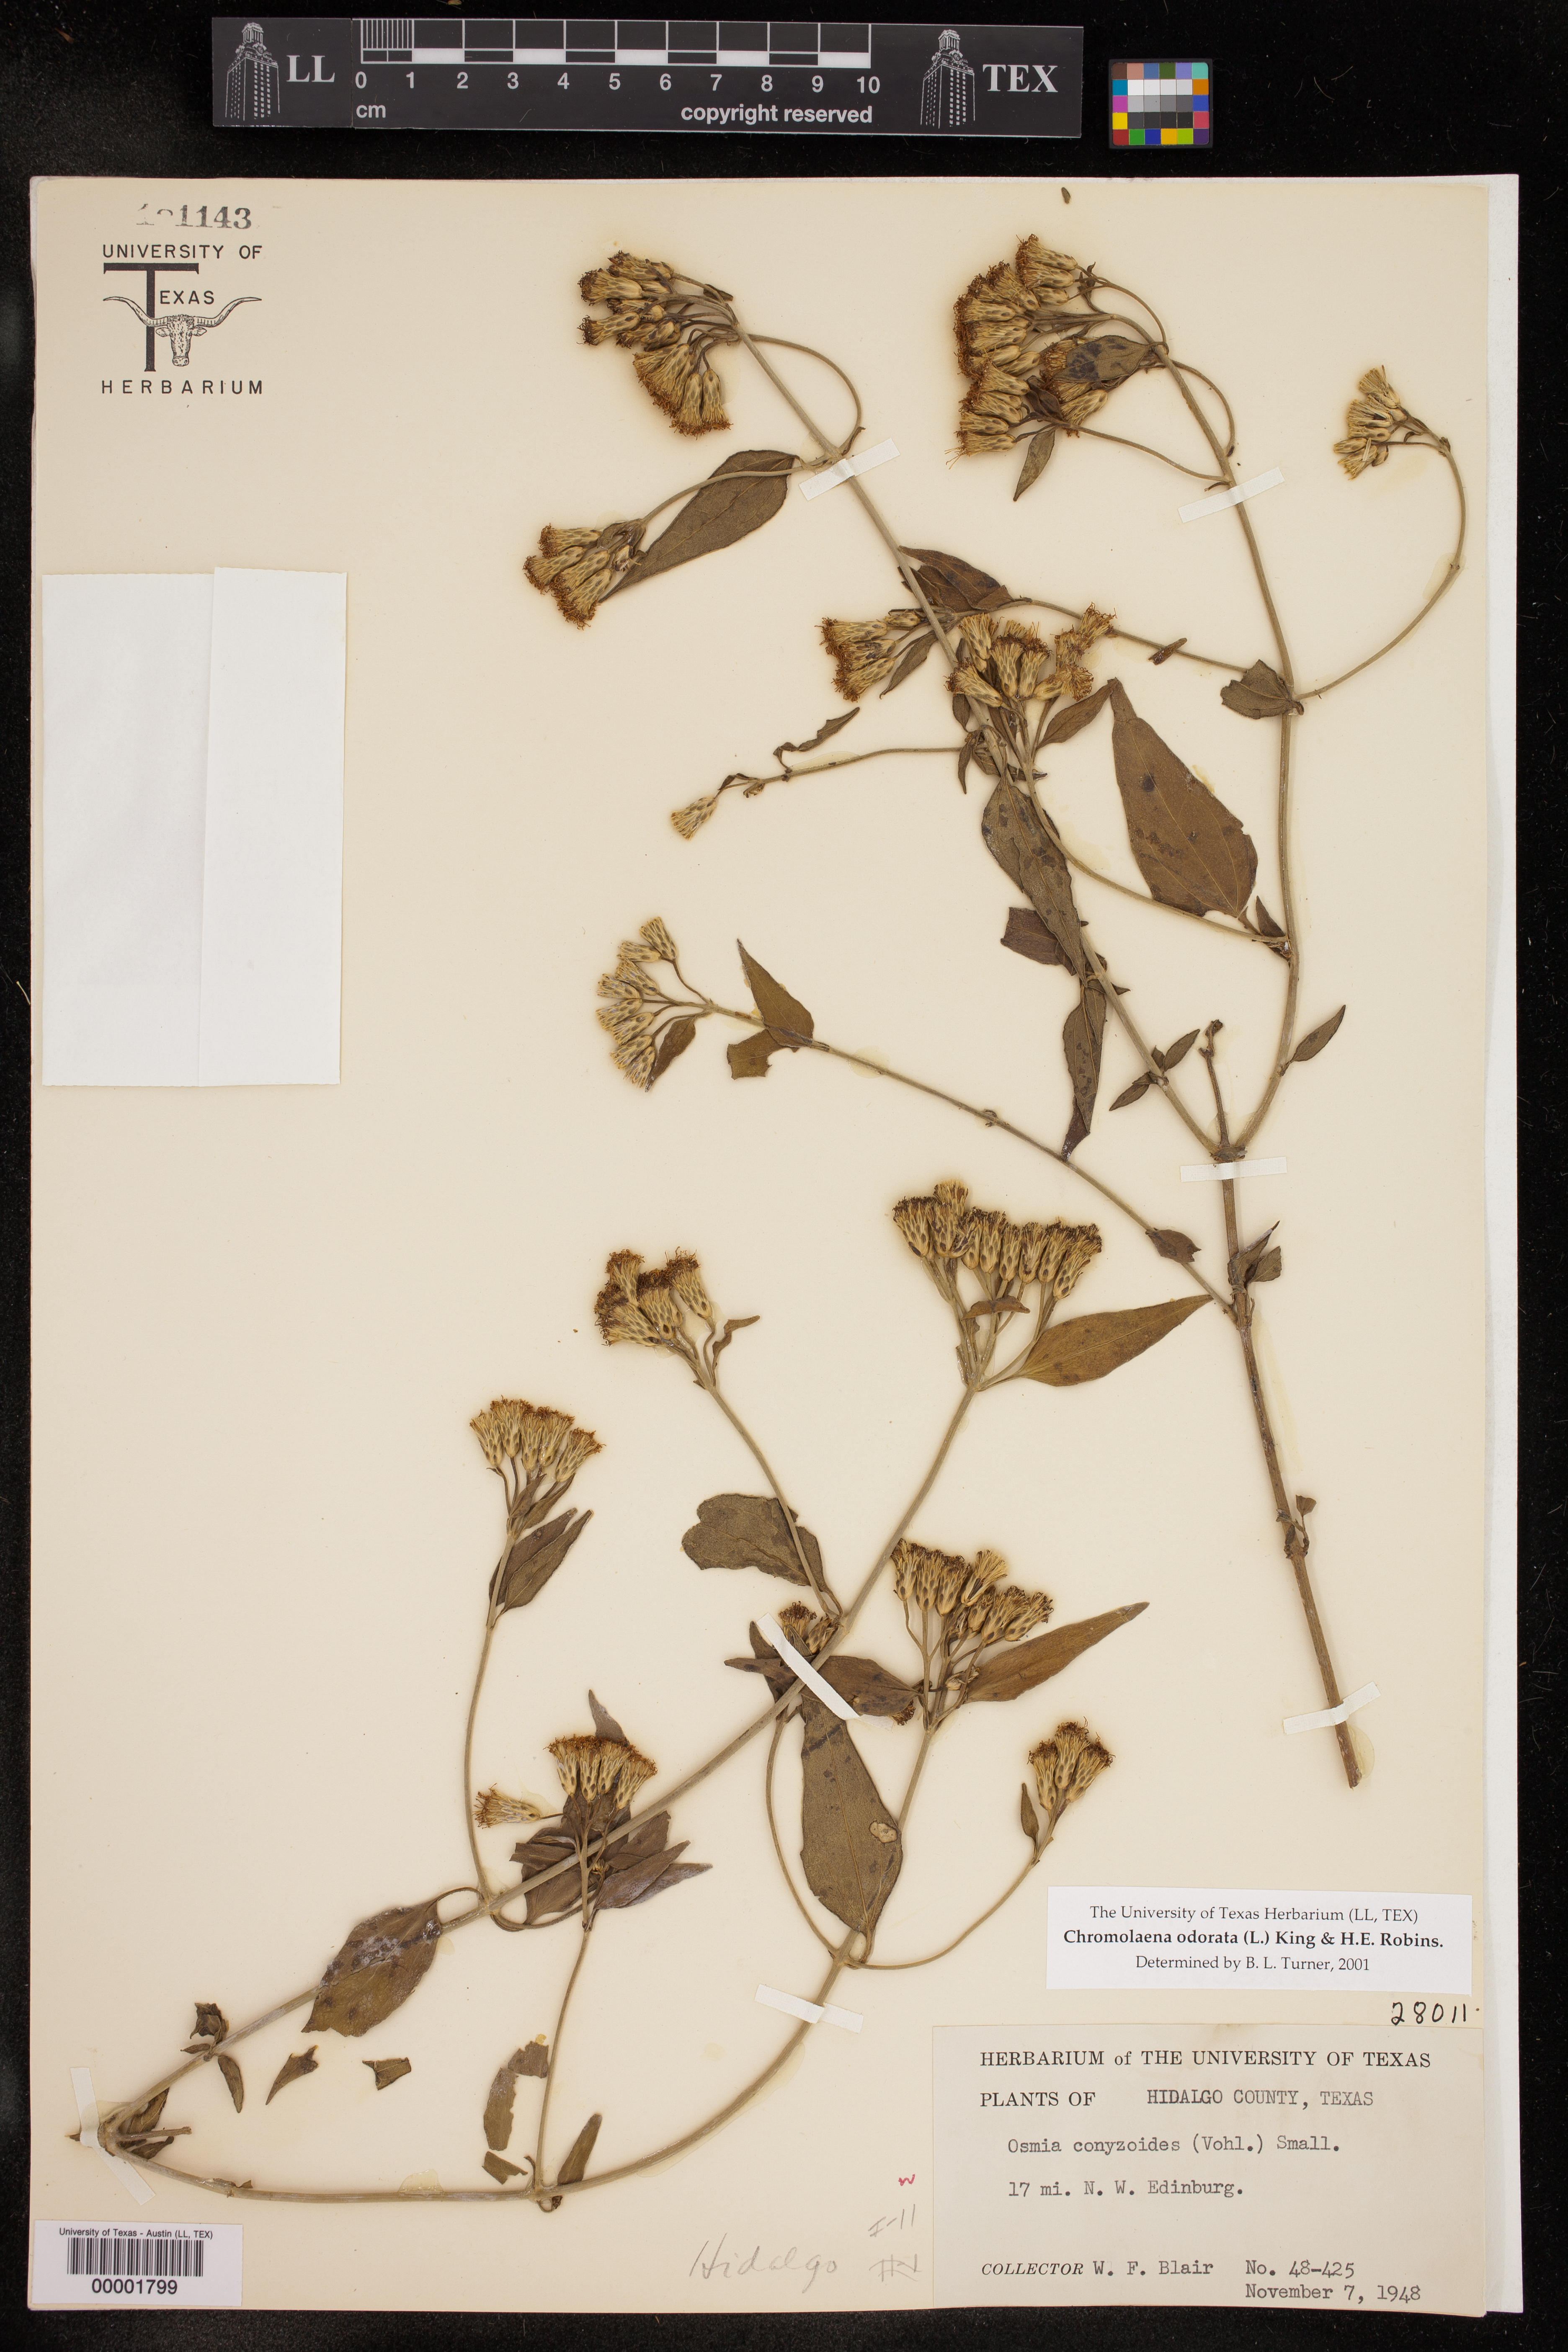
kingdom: Plantae
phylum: Tracheophyta
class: Magnoliopsida
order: Asterales
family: Asteraceae
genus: Chromolaena
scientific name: Chromolaena odorata
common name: Siamweed
